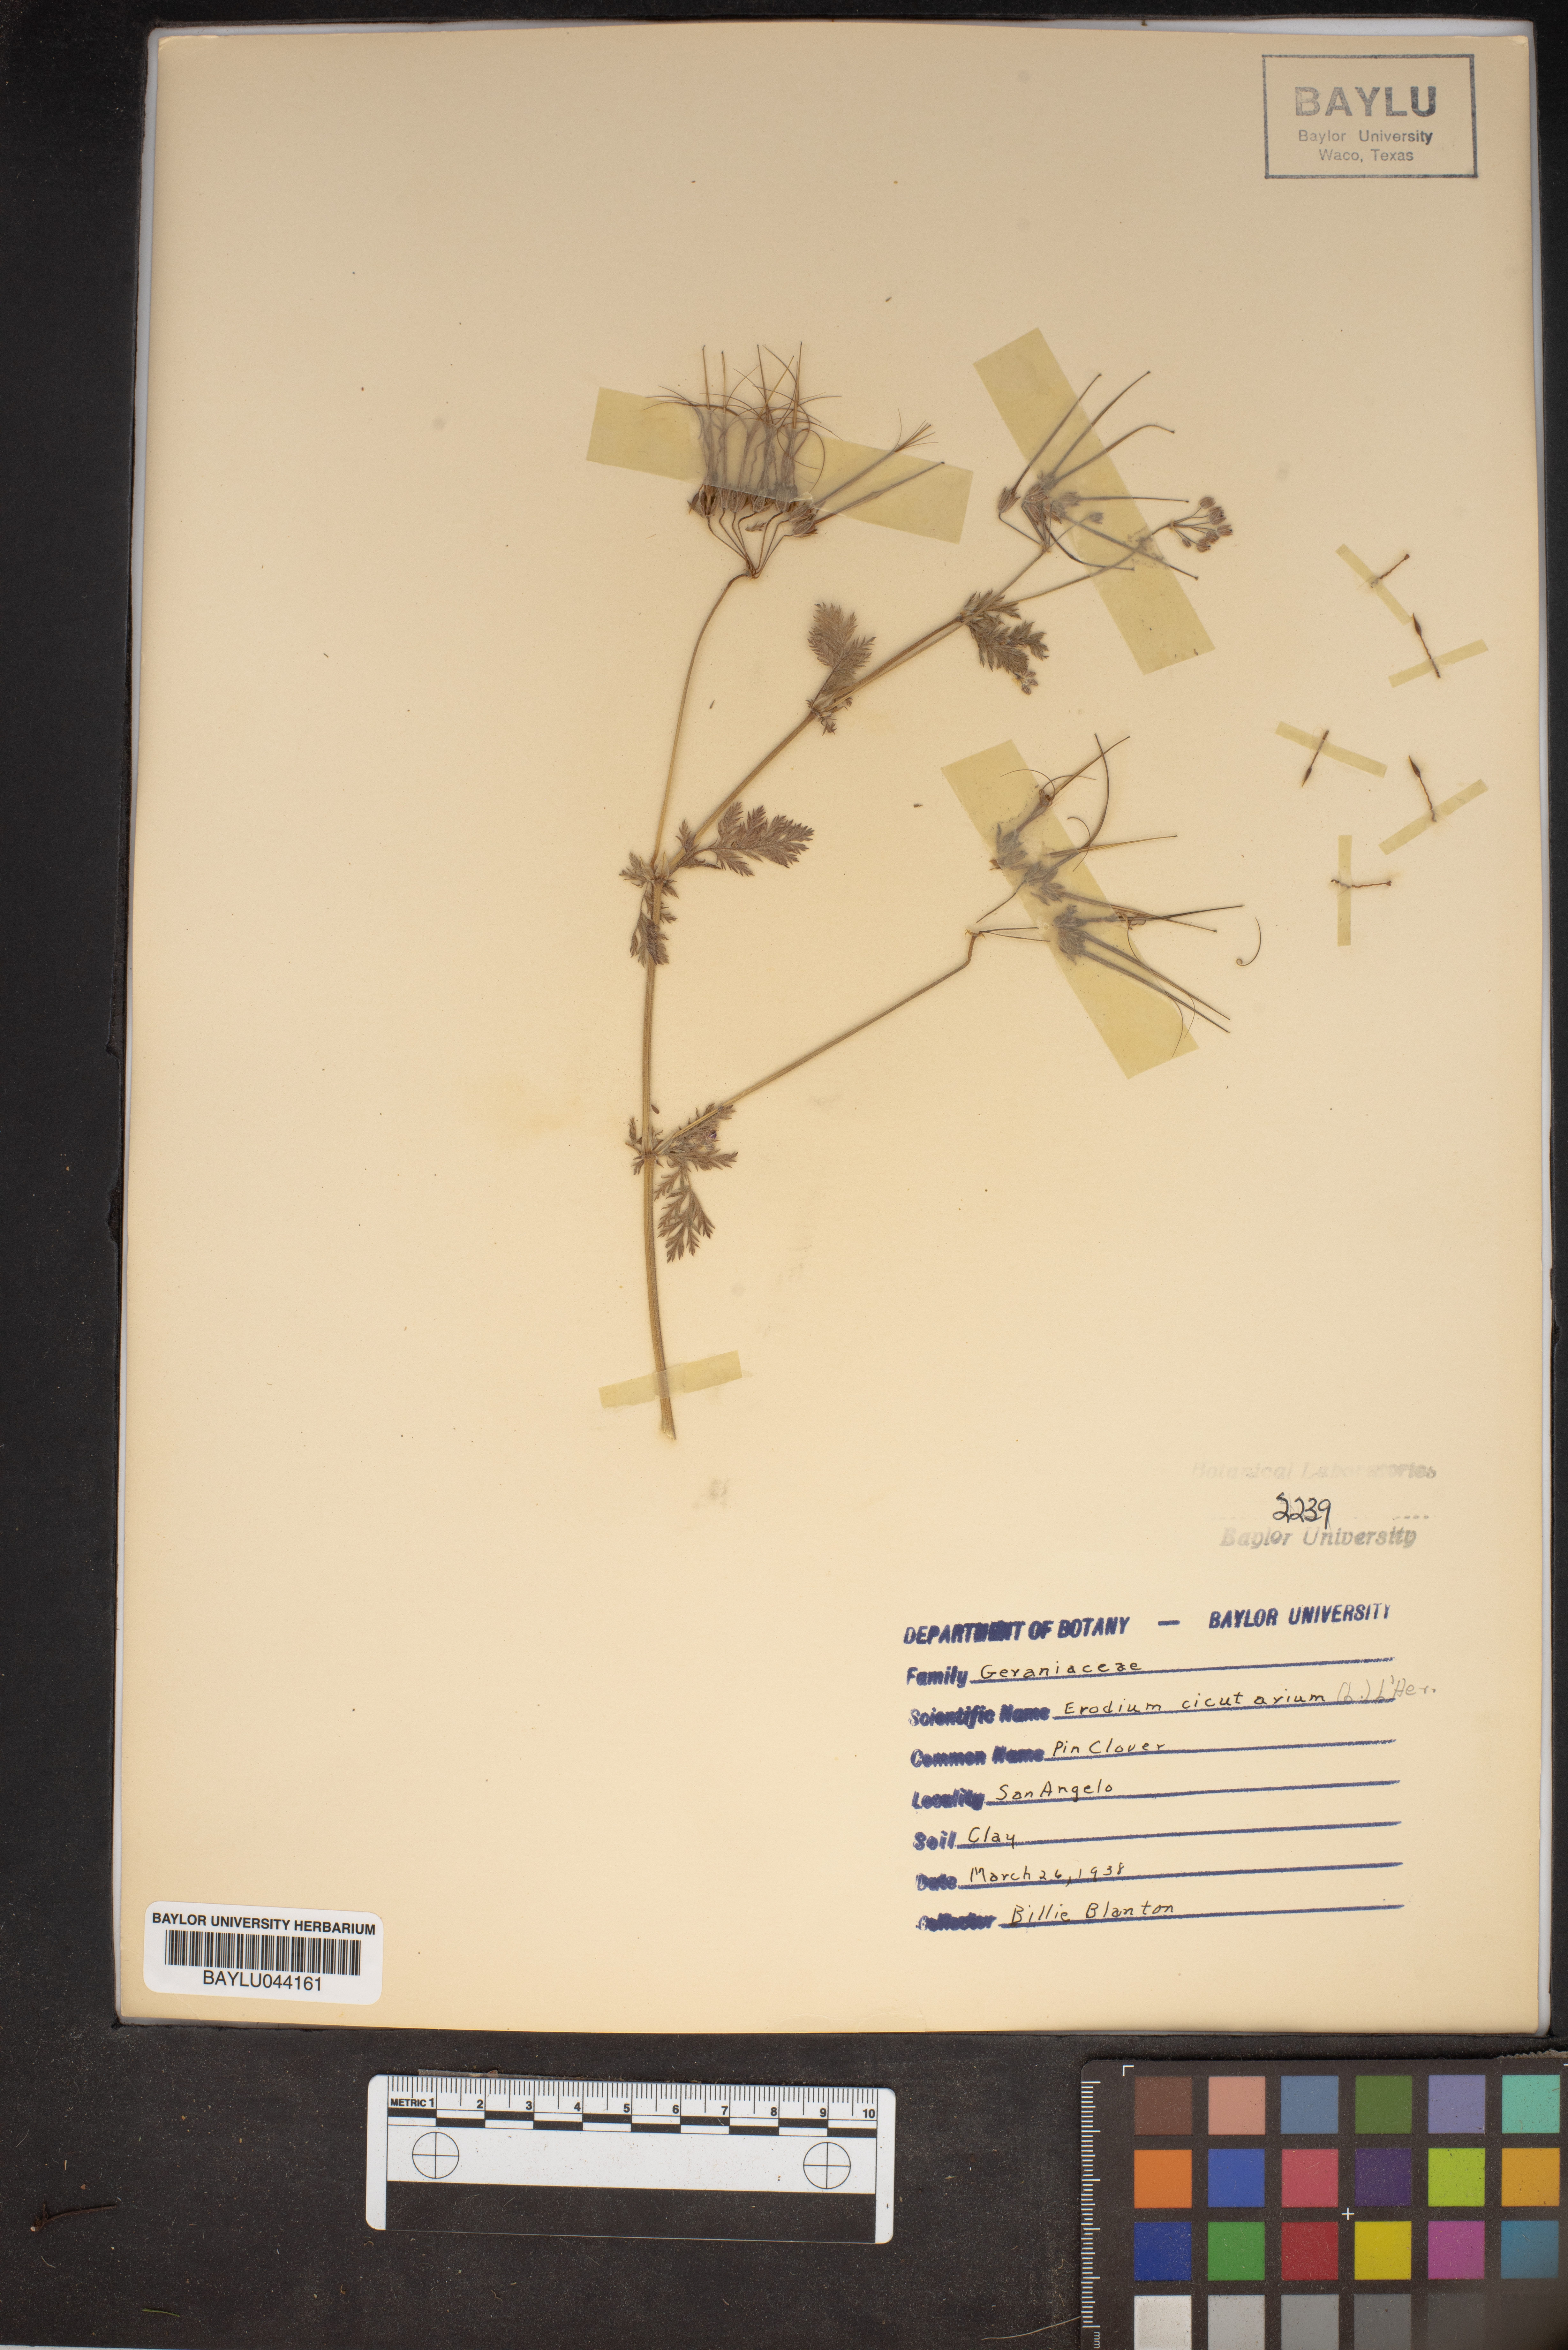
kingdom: Plantae
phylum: Tracheophyta
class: Magnoliopsida
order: Geraniales
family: Geraniaceae
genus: Erodium
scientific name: Erodium cicutarium
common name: Common stork's-bill
